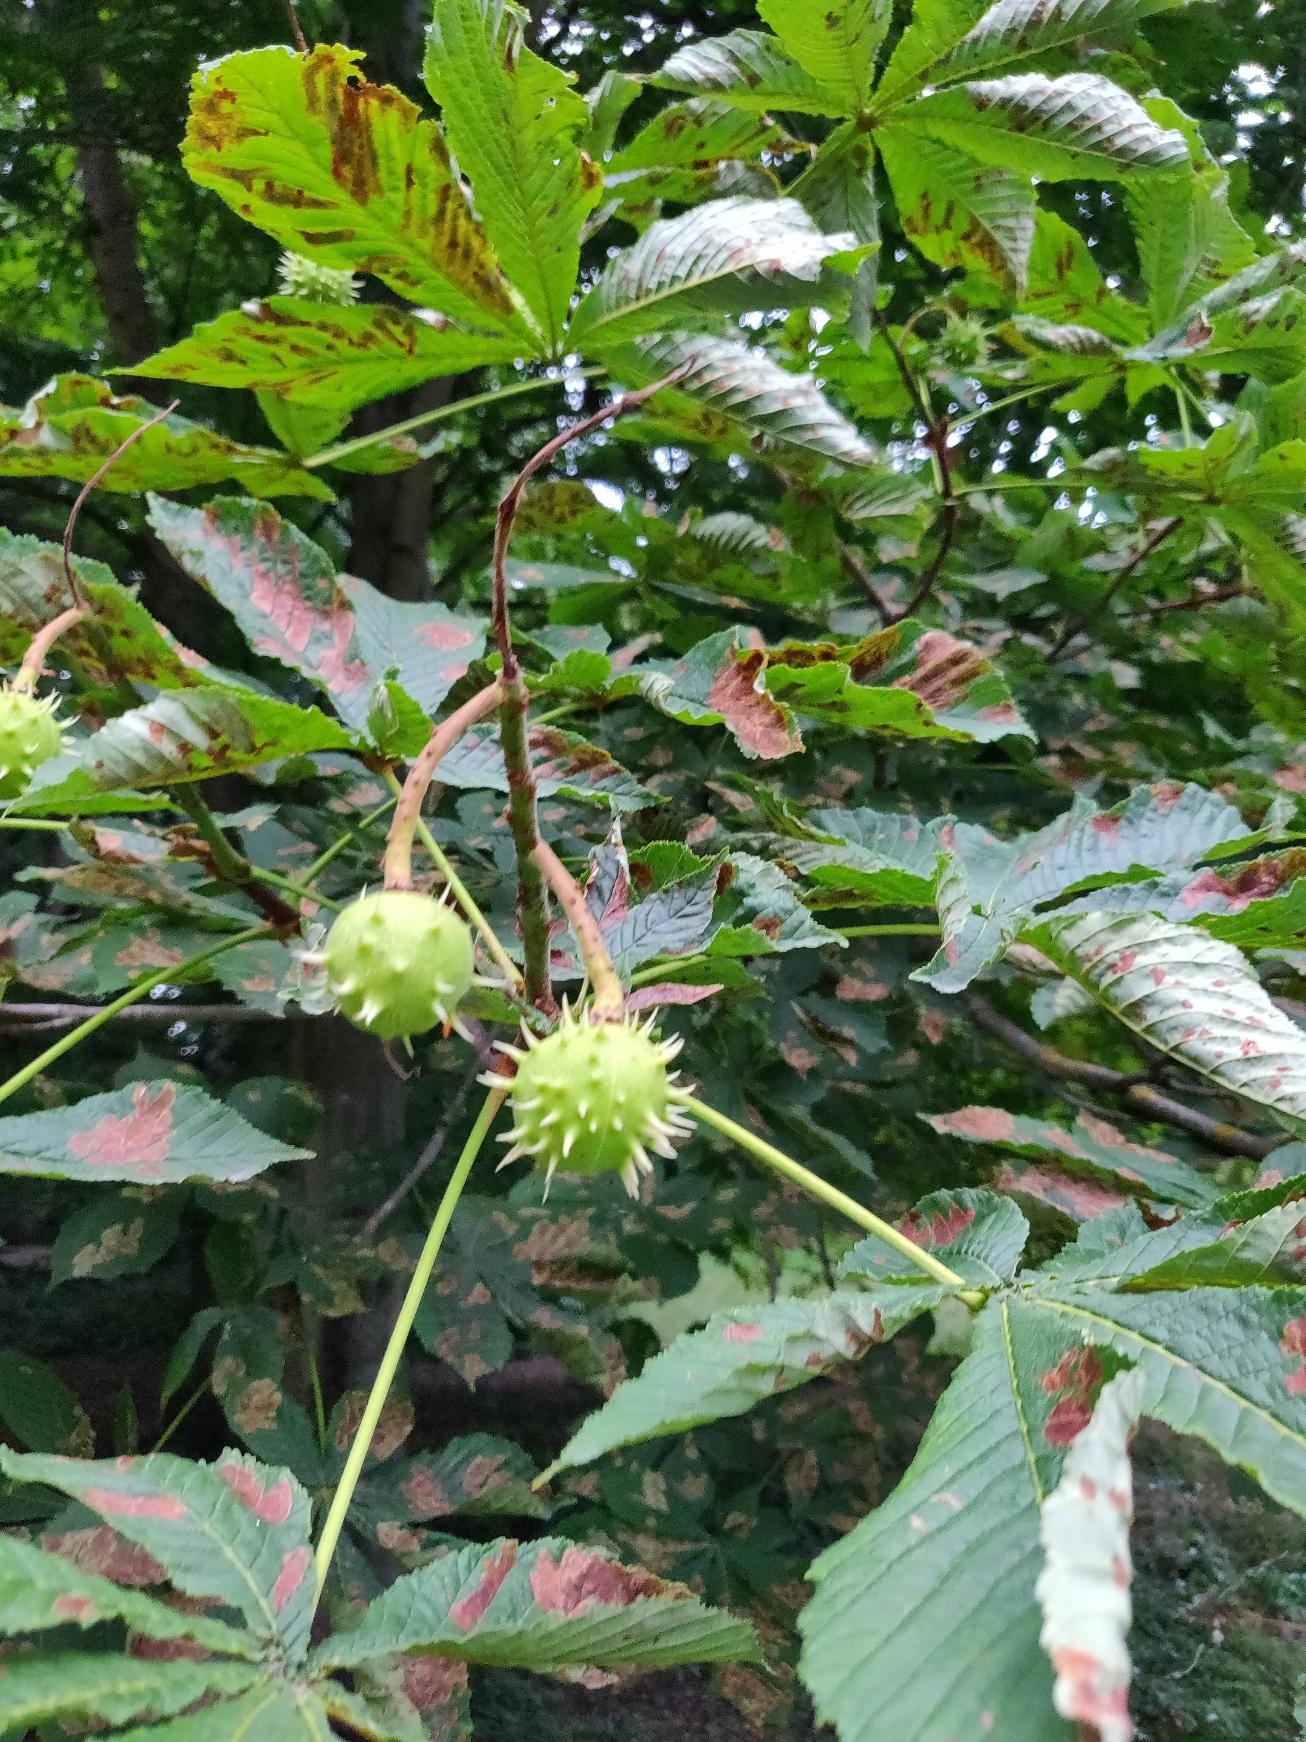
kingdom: Plantae
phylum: Tracheophyta
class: Magnoliopsida
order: Sapindales
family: Sapindaceae
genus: Aesculus
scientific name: Aesculus hippocastanum
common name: Hestekastanie
